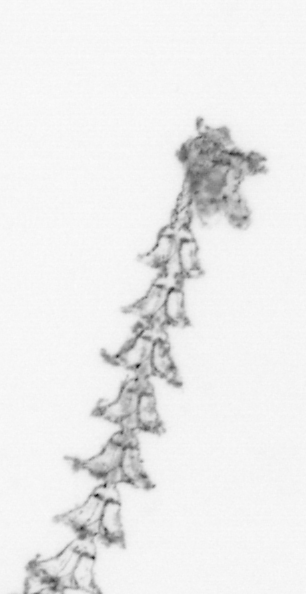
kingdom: Animalia
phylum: Cnidaria
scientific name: Cnidaria
